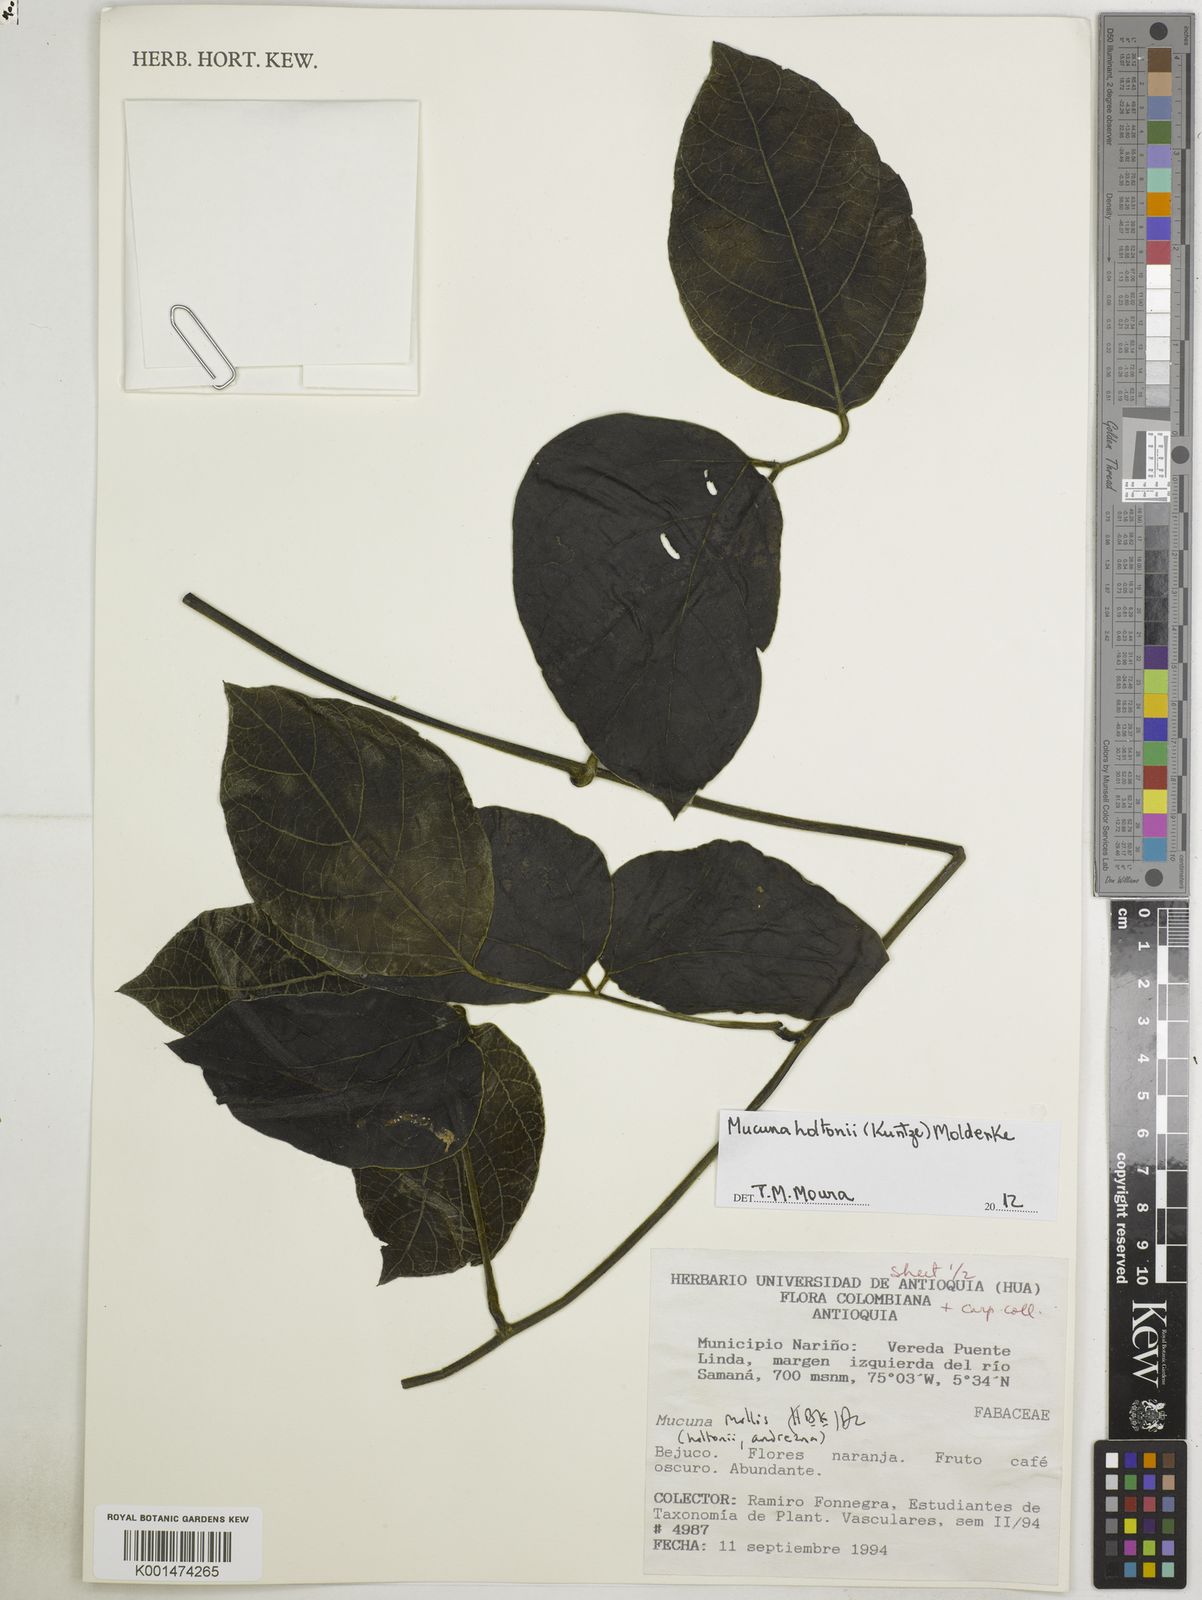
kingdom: Plantae
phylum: Tracheophyta
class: Magnoliopsida
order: Fabales
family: Fabaceae
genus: Mucuna
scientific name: Mucuna holtonii
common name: Hamburger bean
